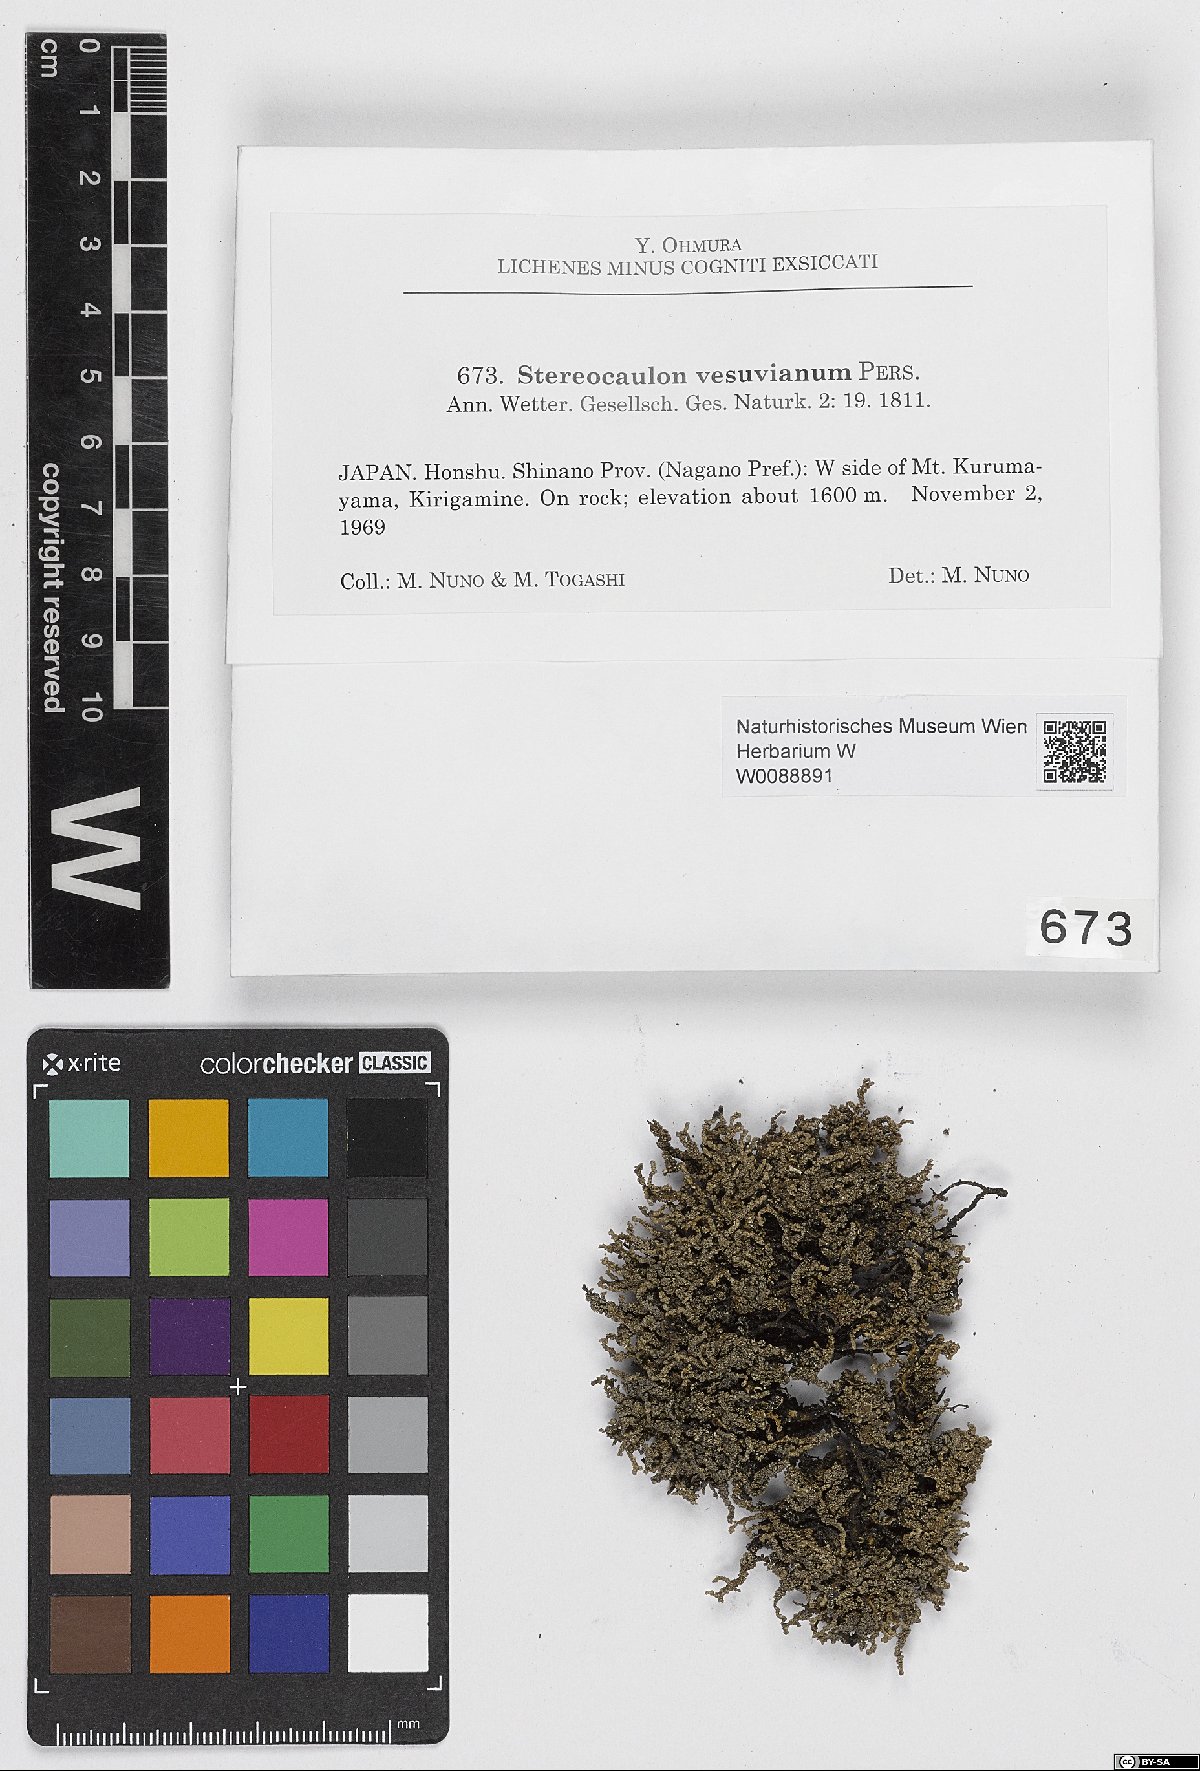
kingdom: Fungi
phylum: Ascomycota
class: Lecanoromycetes
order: Lecanorales
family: Stereocaulaceae
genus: Stereocaulon
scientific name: Stereocaulon vesuvianum
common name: Variegated foam lichen
